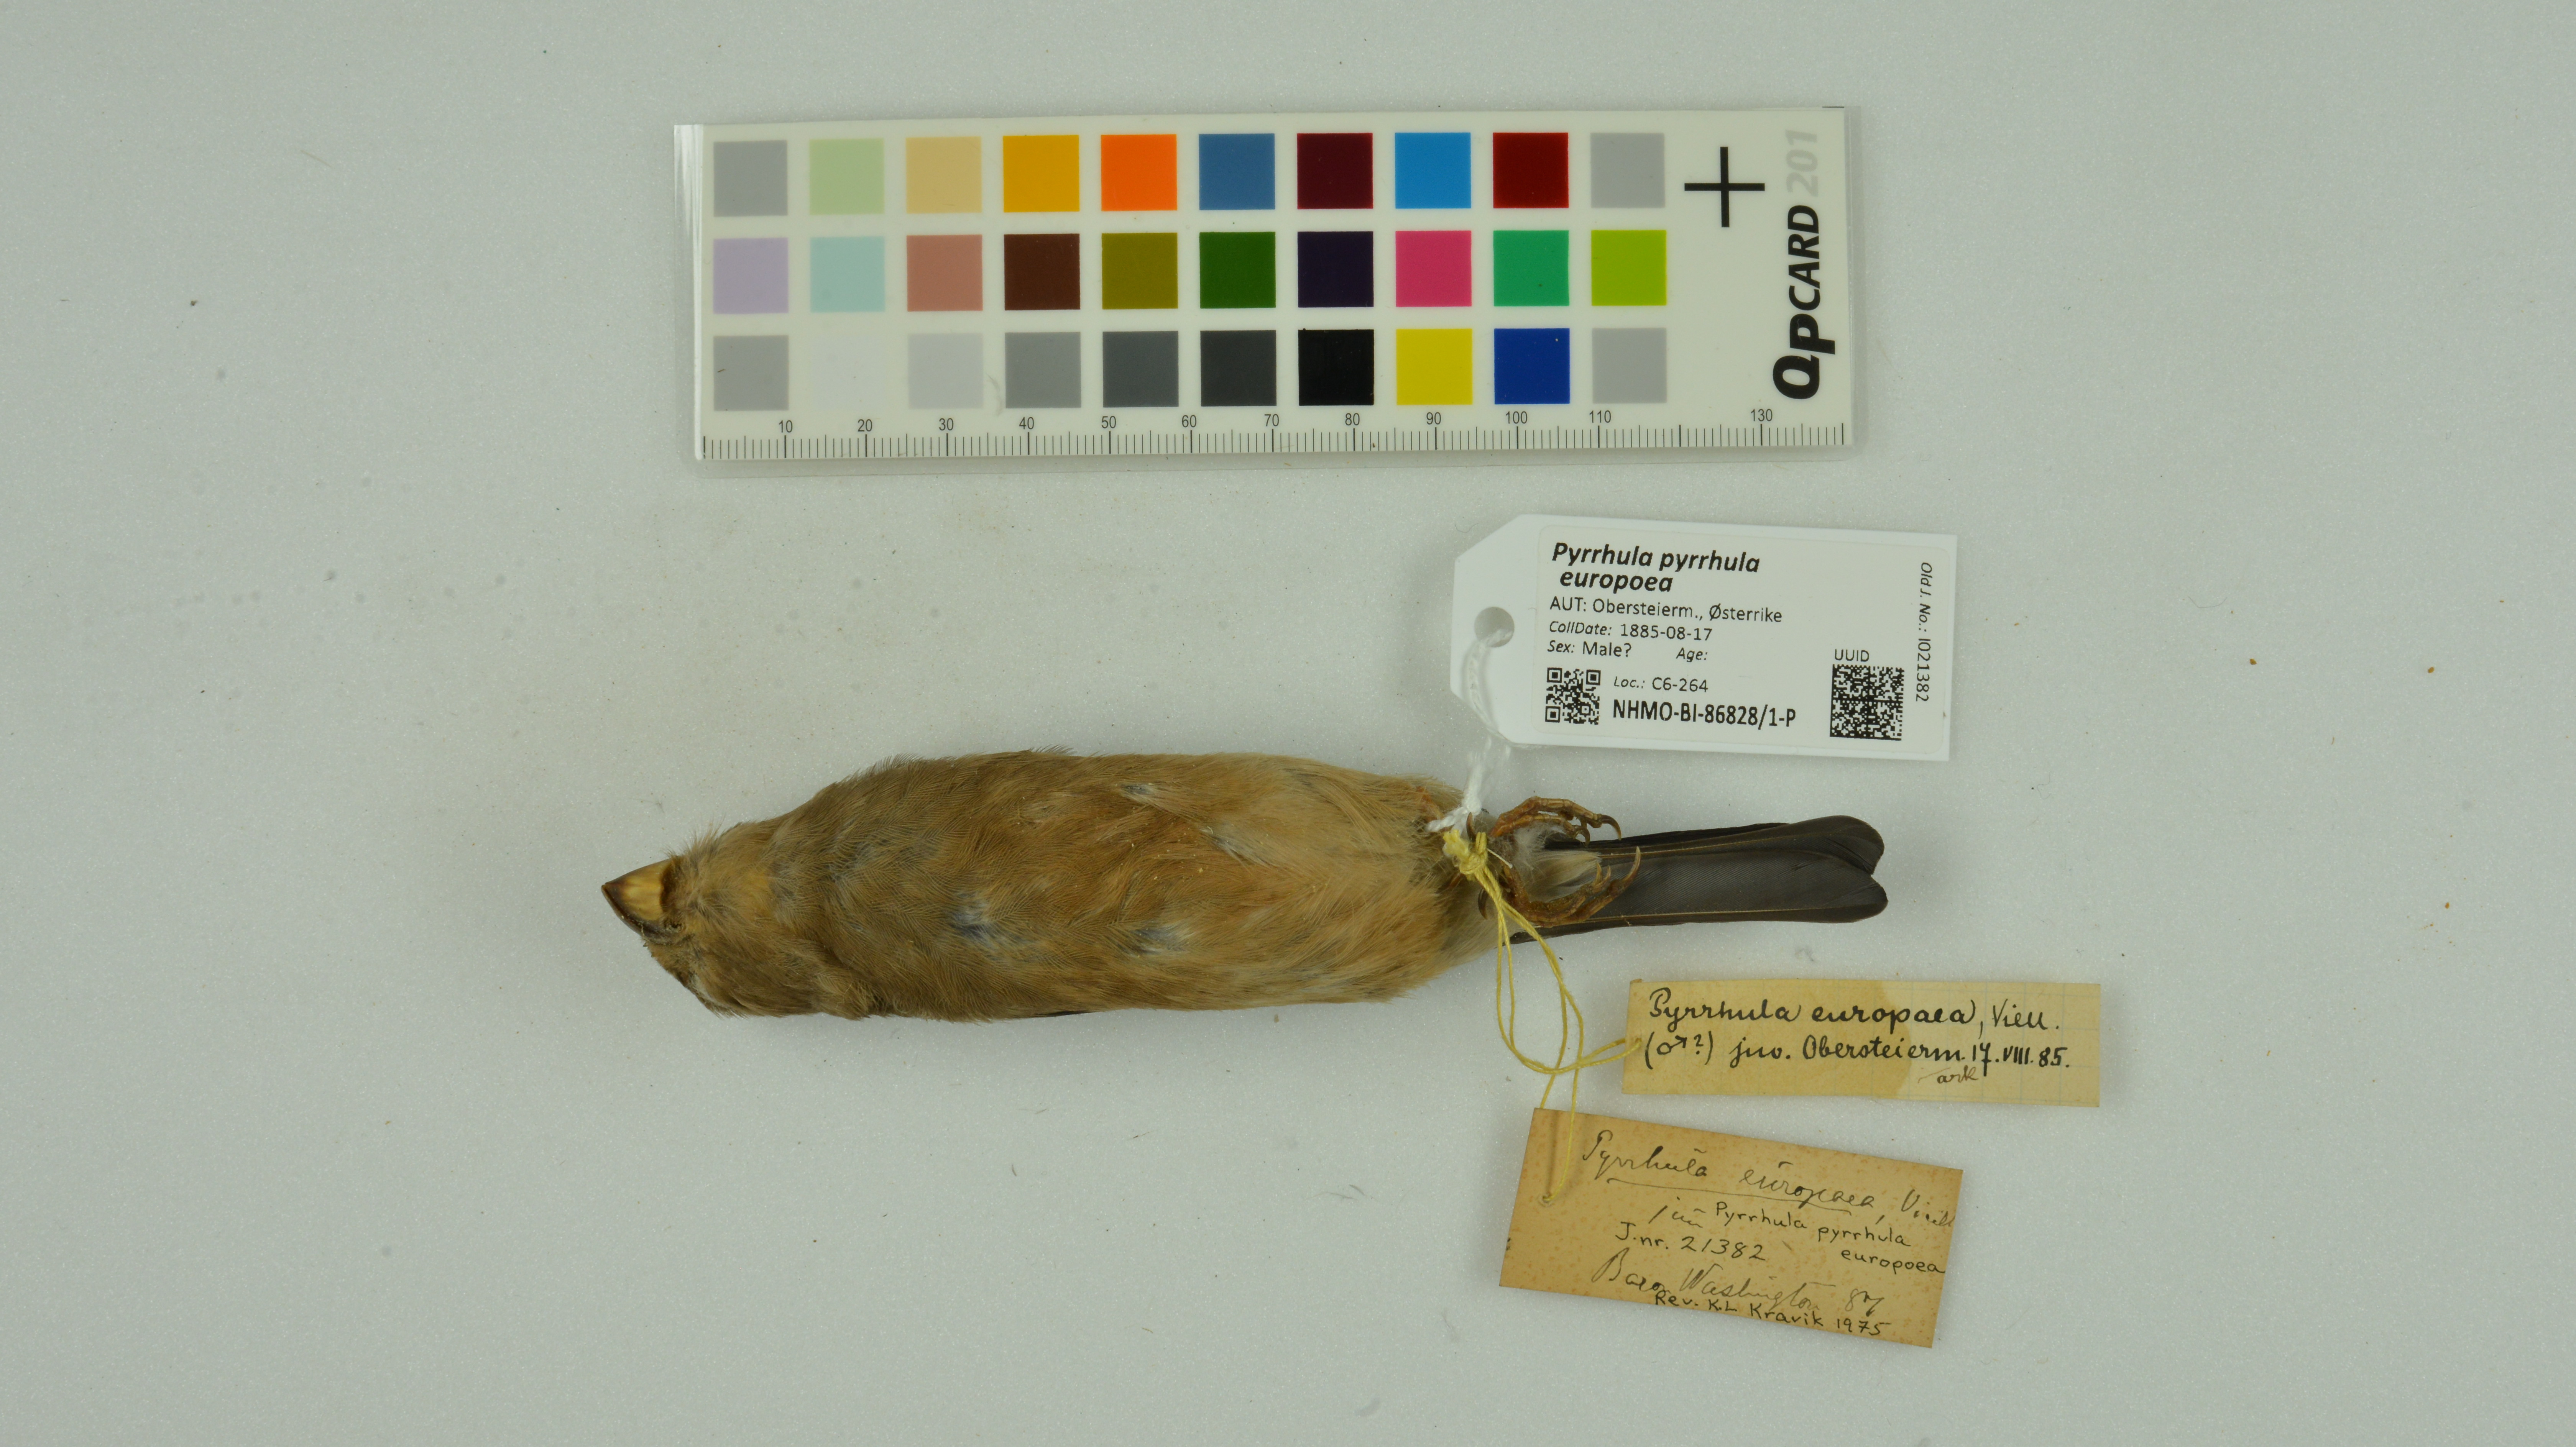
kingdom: Animalia
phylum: Chordata
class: Aves
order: Passeriformes
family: Fringillidae
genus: Pyrrhula
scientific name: Pyrrhula pyrrhula
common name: Eurasian bullfinch
